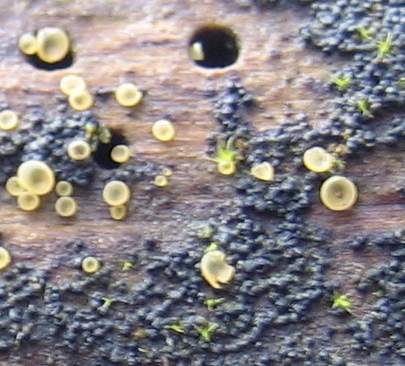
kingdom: Fungi
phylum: Ascomycota
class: Orbiliomycetes
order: Orbiliales
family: Orbiliaceae
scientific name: Orbiliaceae
